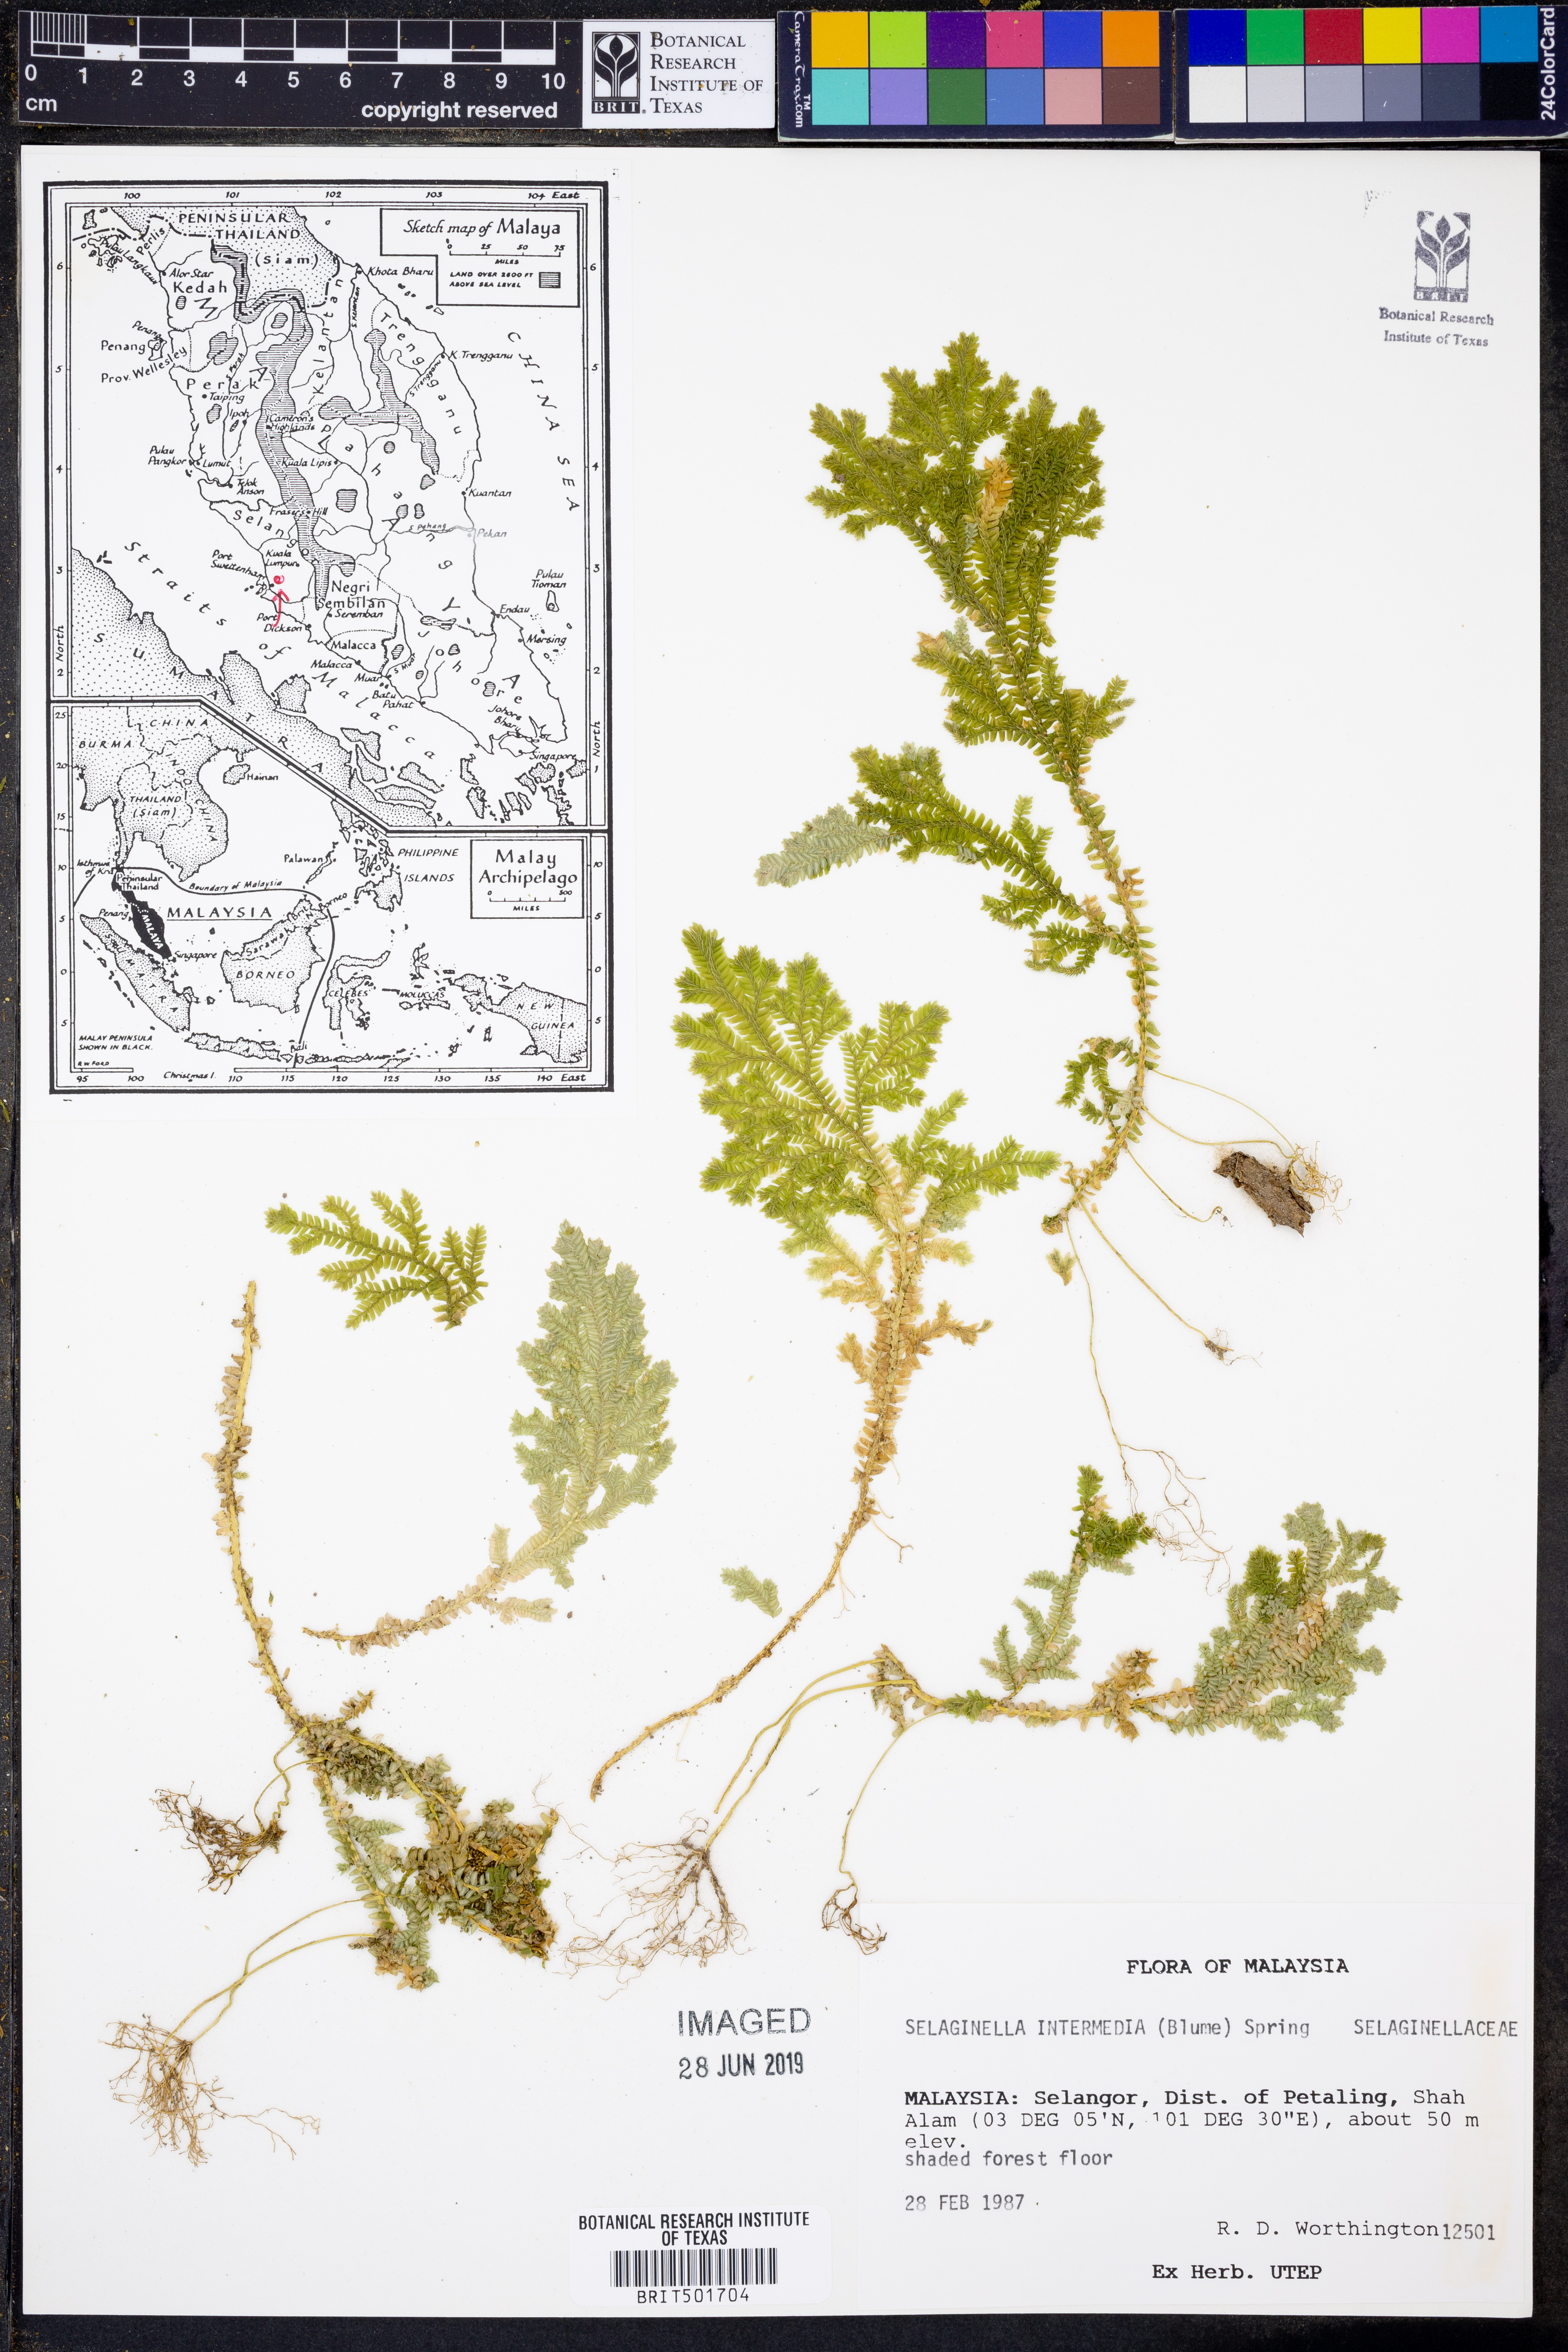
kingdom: Plantae
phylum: Tracheophyta
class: Lycopodiopsida
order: Selaginellales
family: Selaginellaceae
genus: Selaginella
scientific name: Selaginella intermedia
